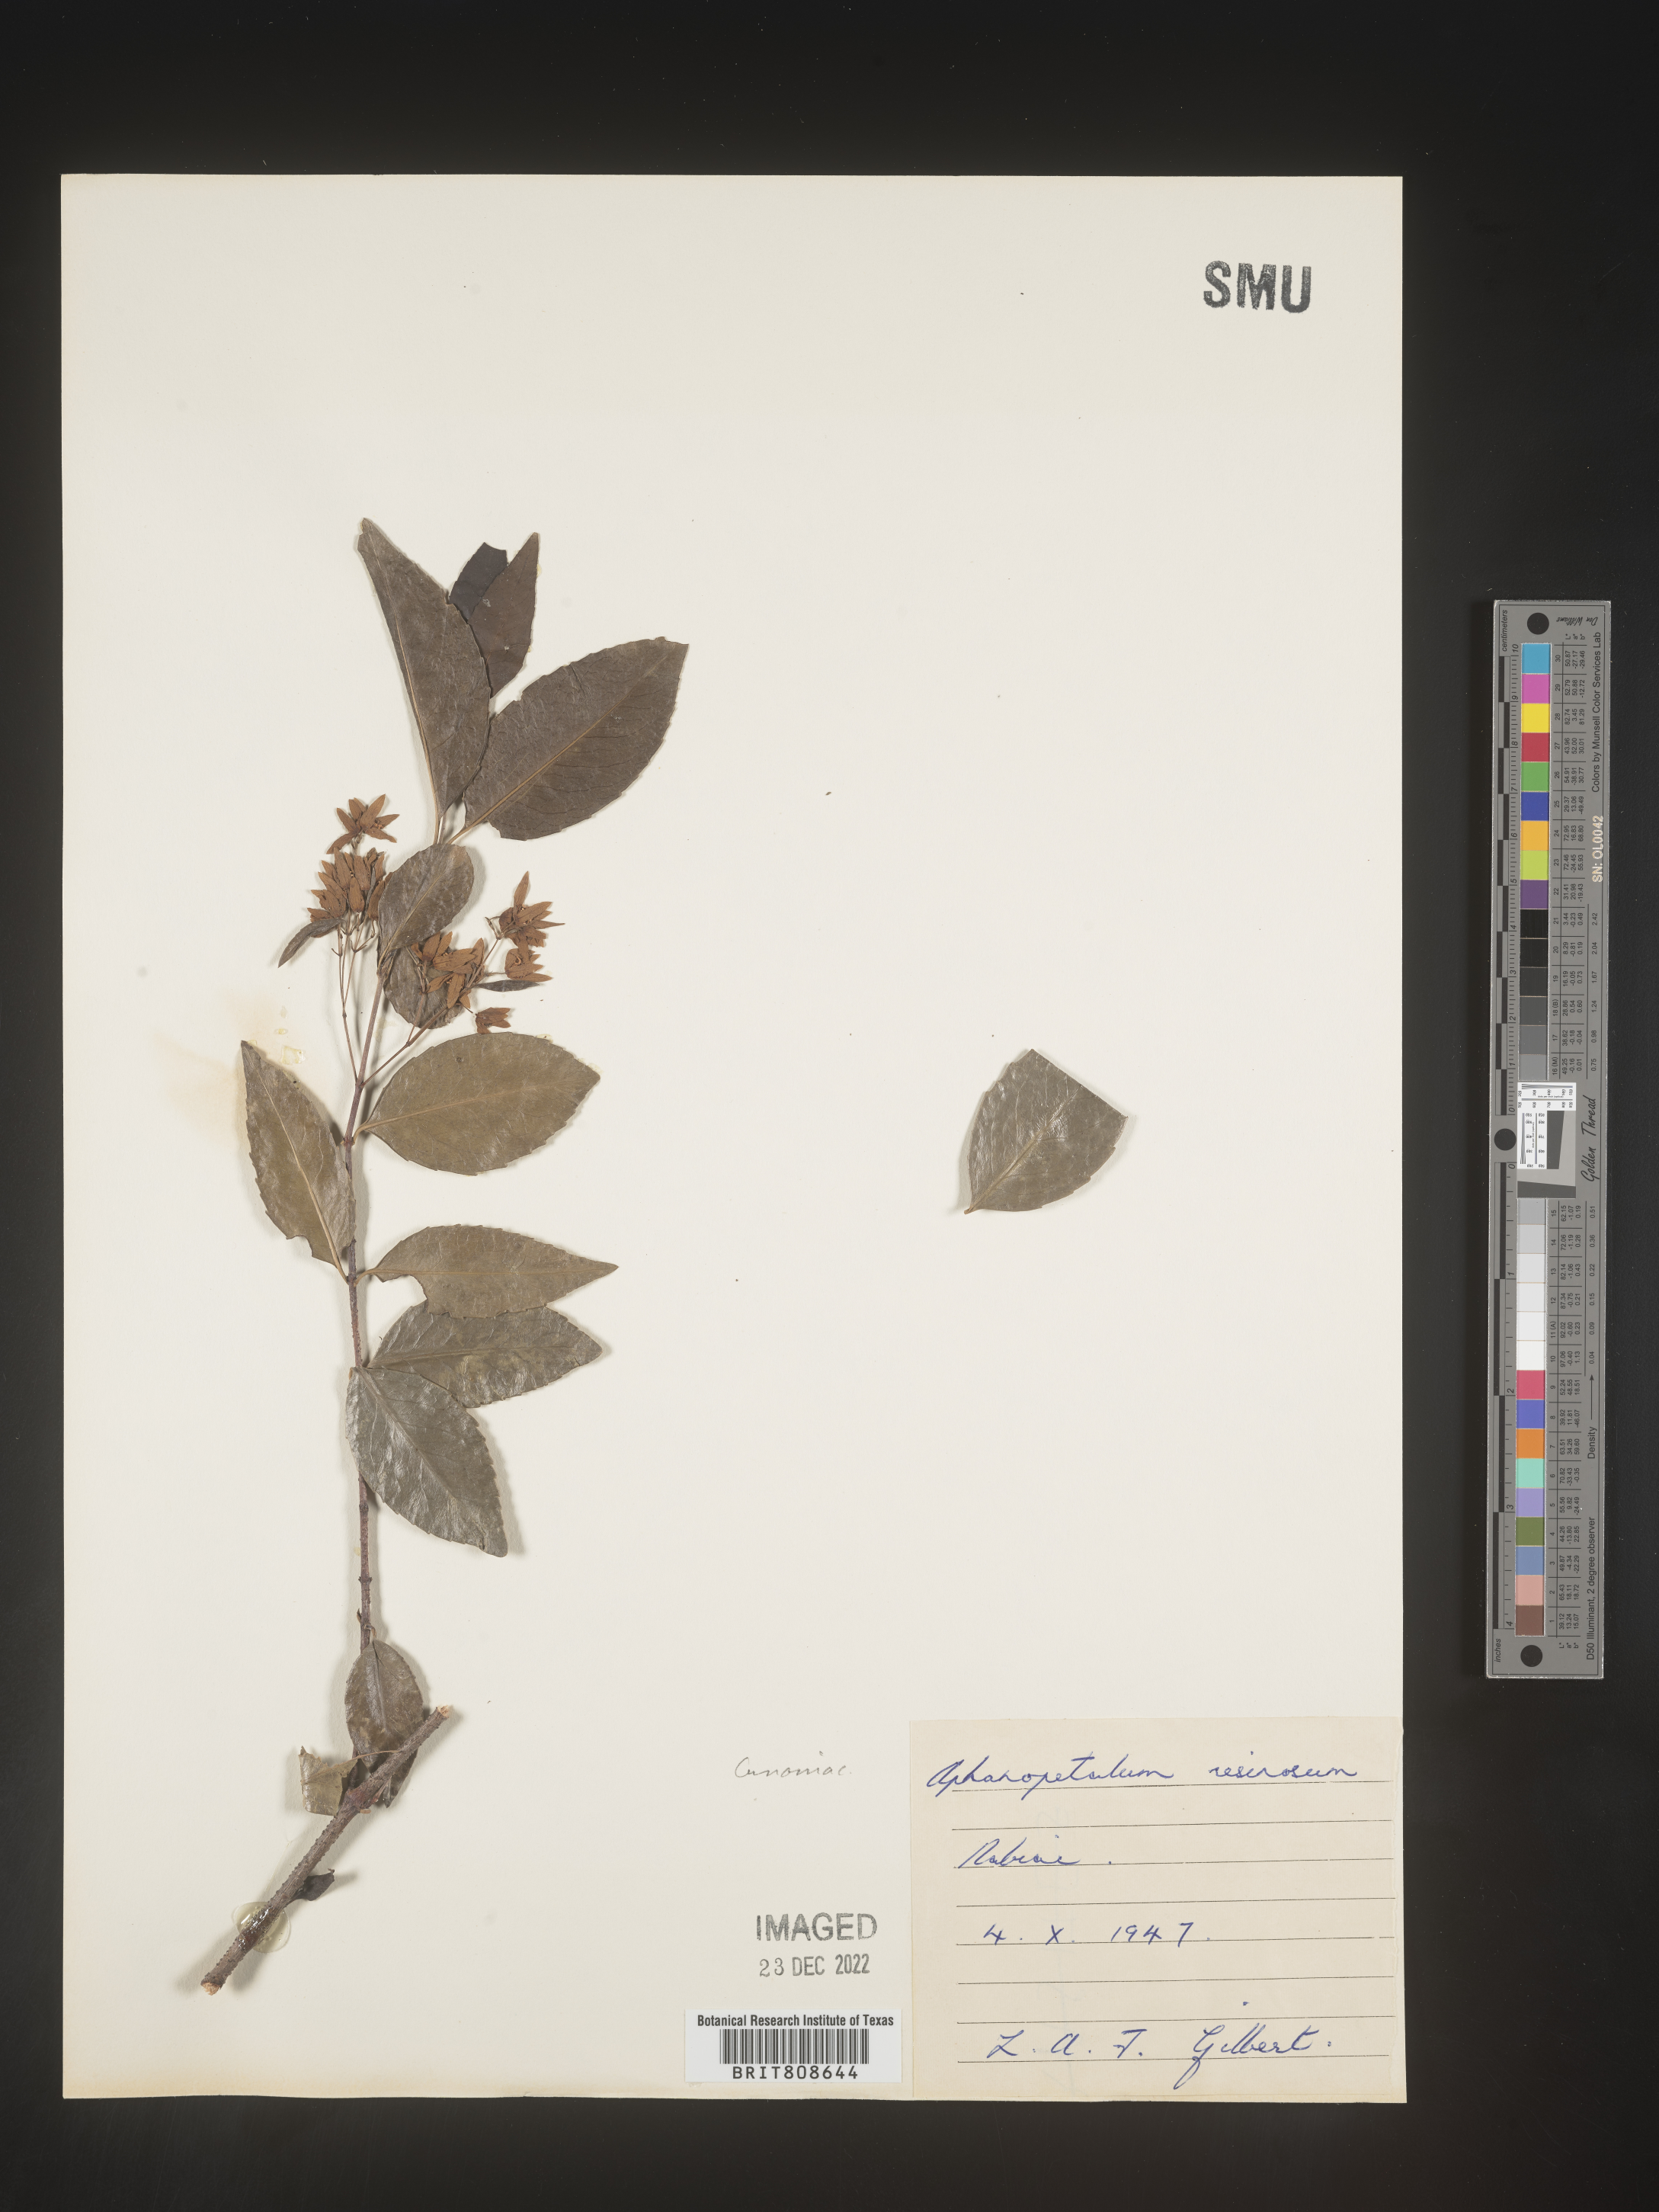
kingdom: Plantae
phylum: Tracheophyta
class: Magnoliopsida
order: Saxifragales
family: Aphanopetalaceae
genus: Aphanopetalum
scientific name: Aphanopetalum
